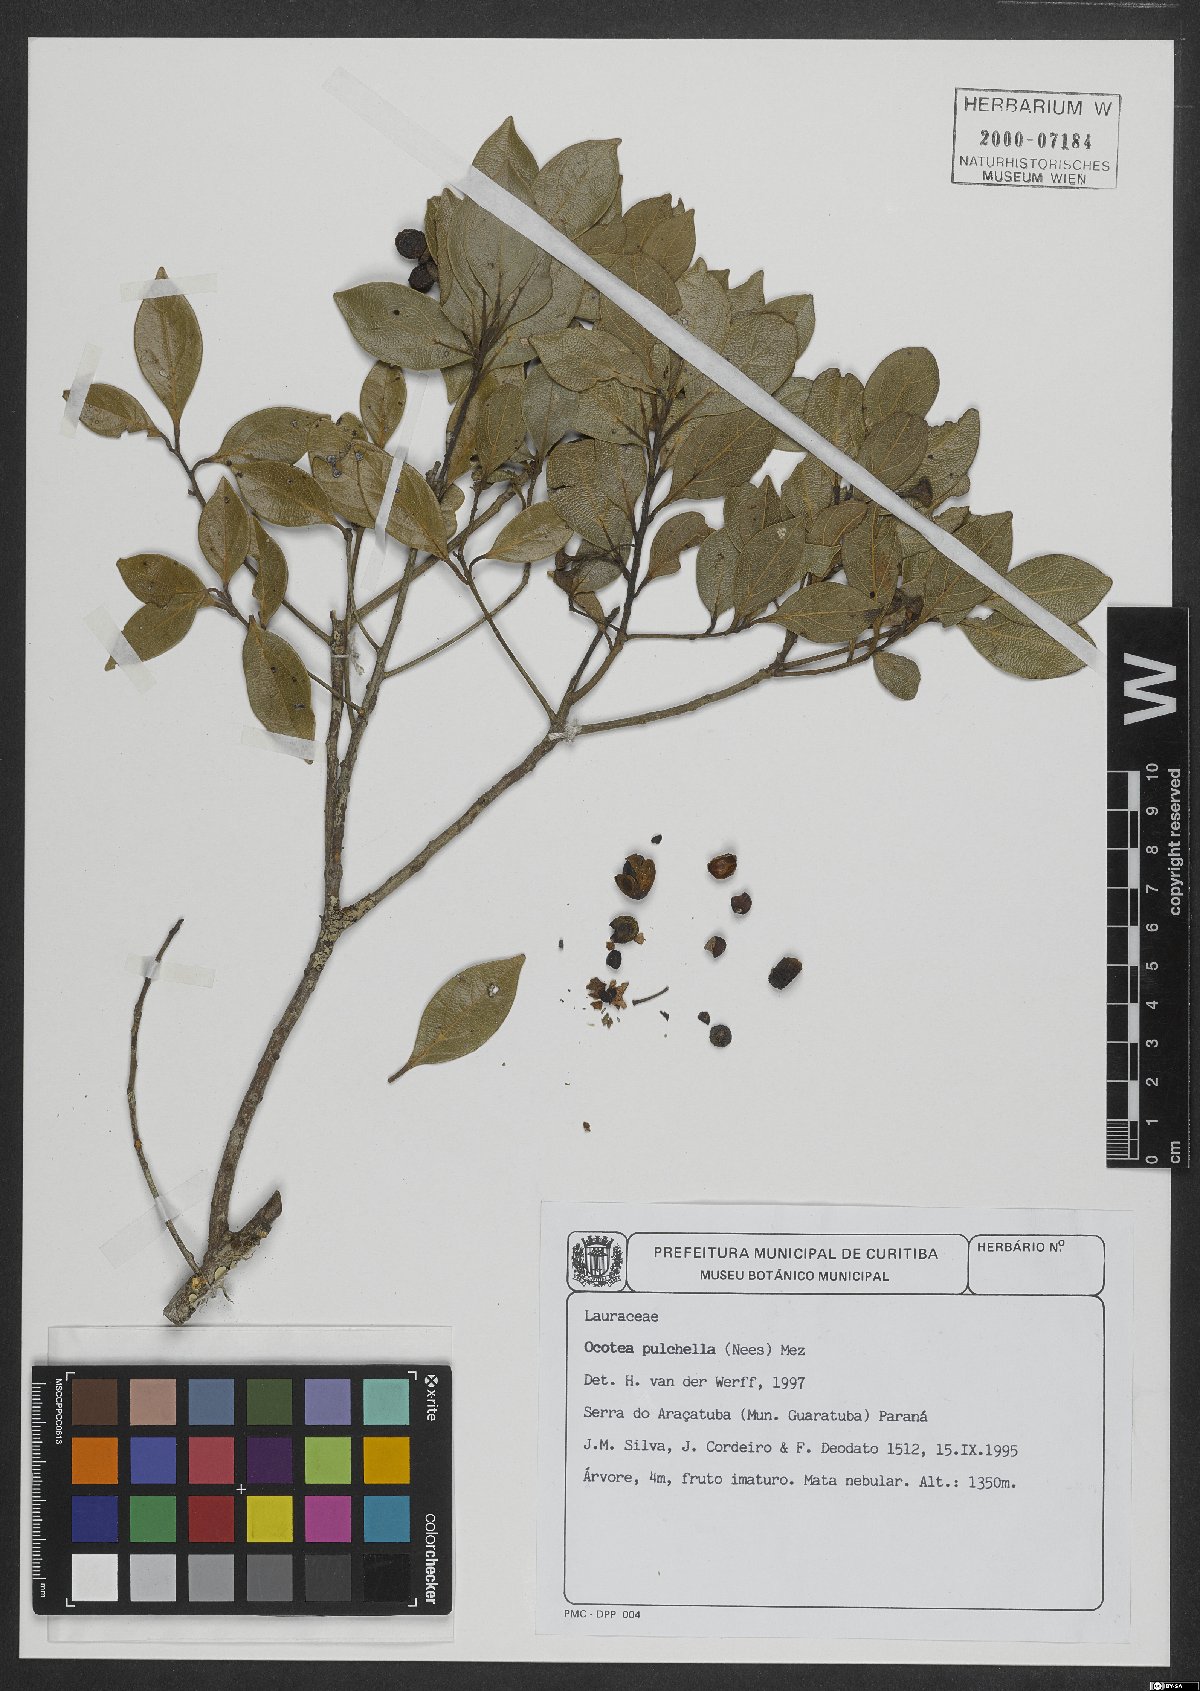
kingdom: Plantae
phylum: Tracheophyta
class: Magnoliopsida
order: Laurales
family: Lauraceae
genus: Mespilodaphne
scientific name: Mespilodaphne pulchella
